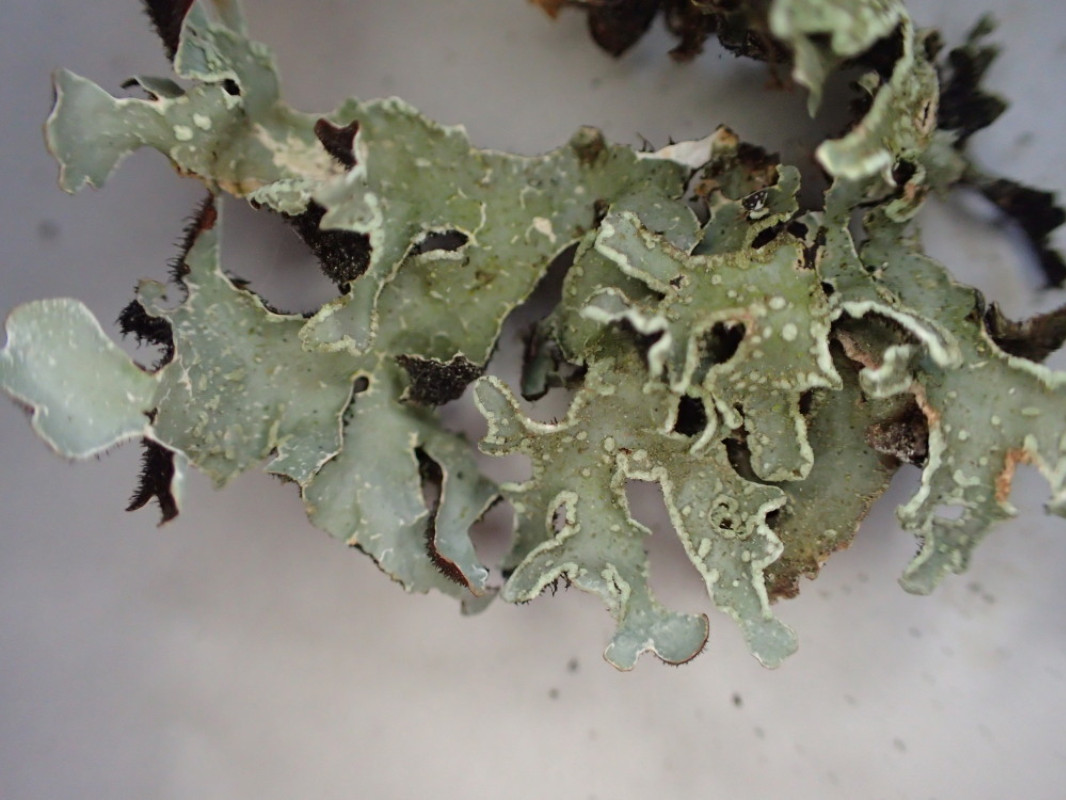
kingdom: Fungi
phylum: Ascomycota
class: Lecanoromycetes
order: Lecanorales
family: Parmeliaceae
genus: Parmelia
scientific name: Parmelia sulcata
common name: rynket skållav
